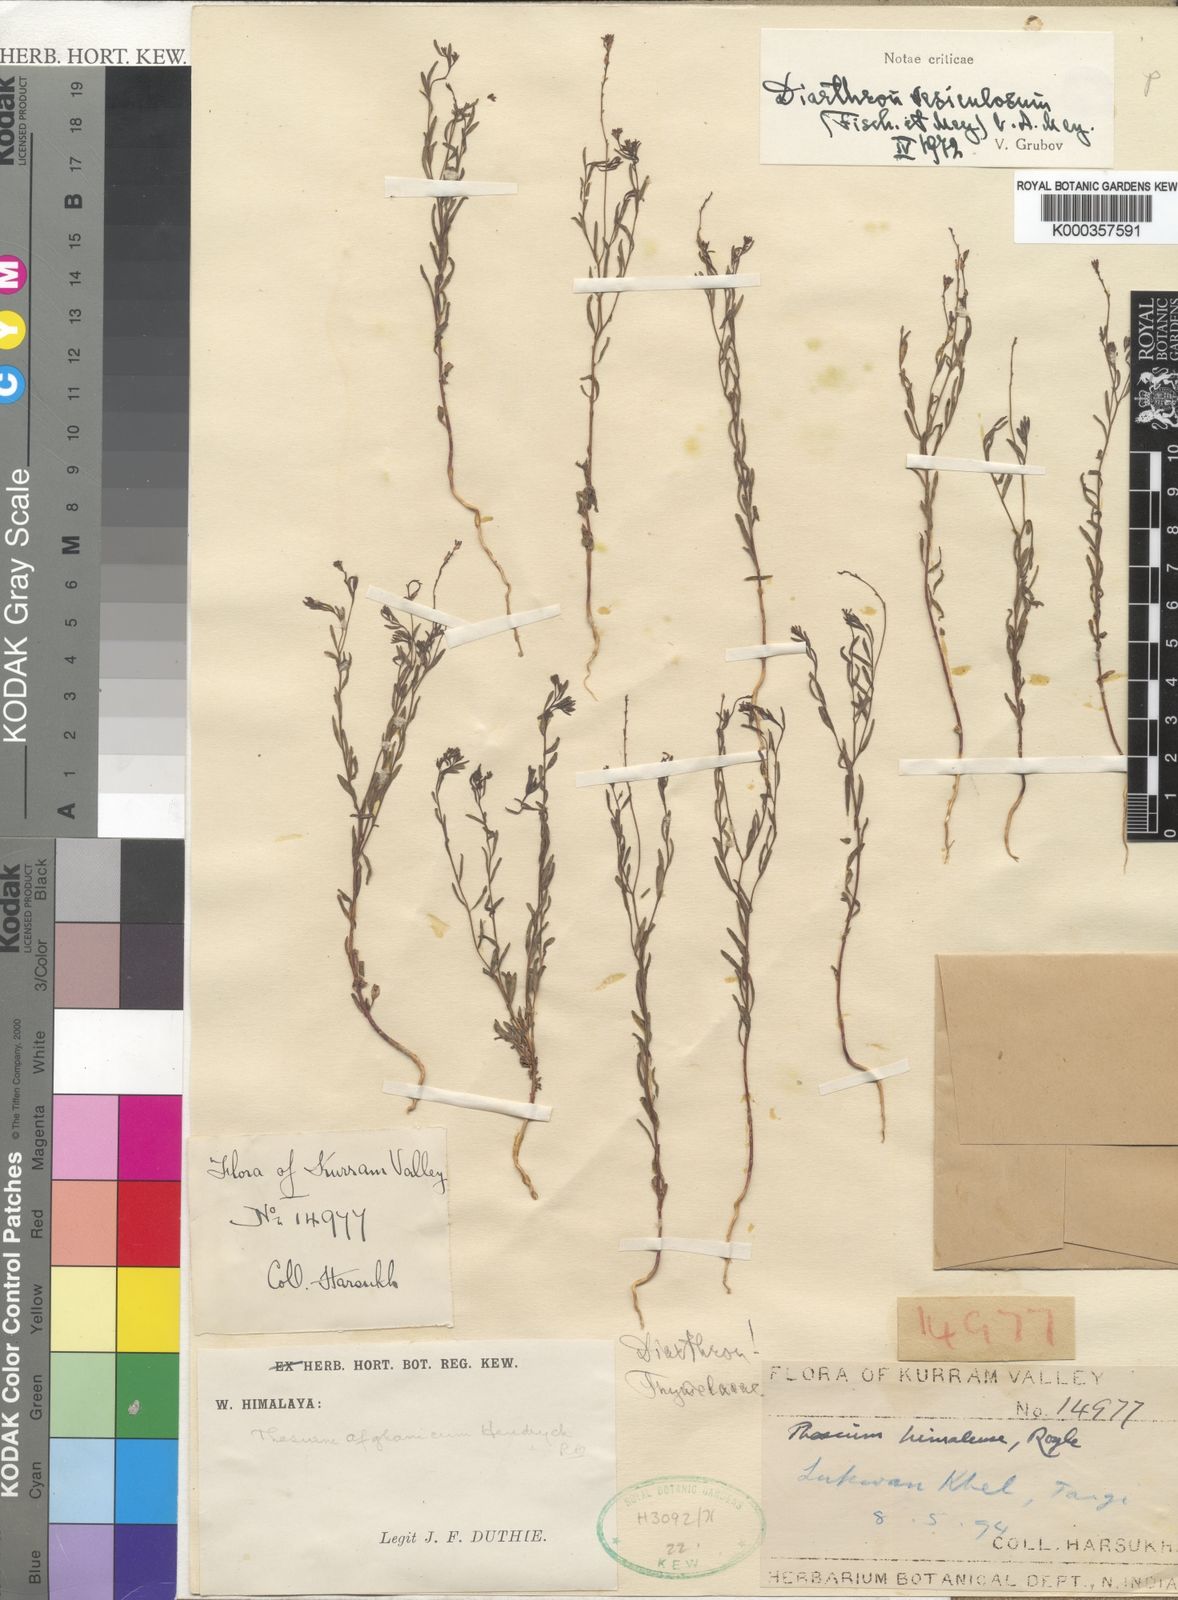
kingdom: Plantae
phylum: Tracheophyta
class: Magnoliopsida
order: Malvales
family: Thymelaeaceae
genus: Diarthron
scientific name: Diarthron
